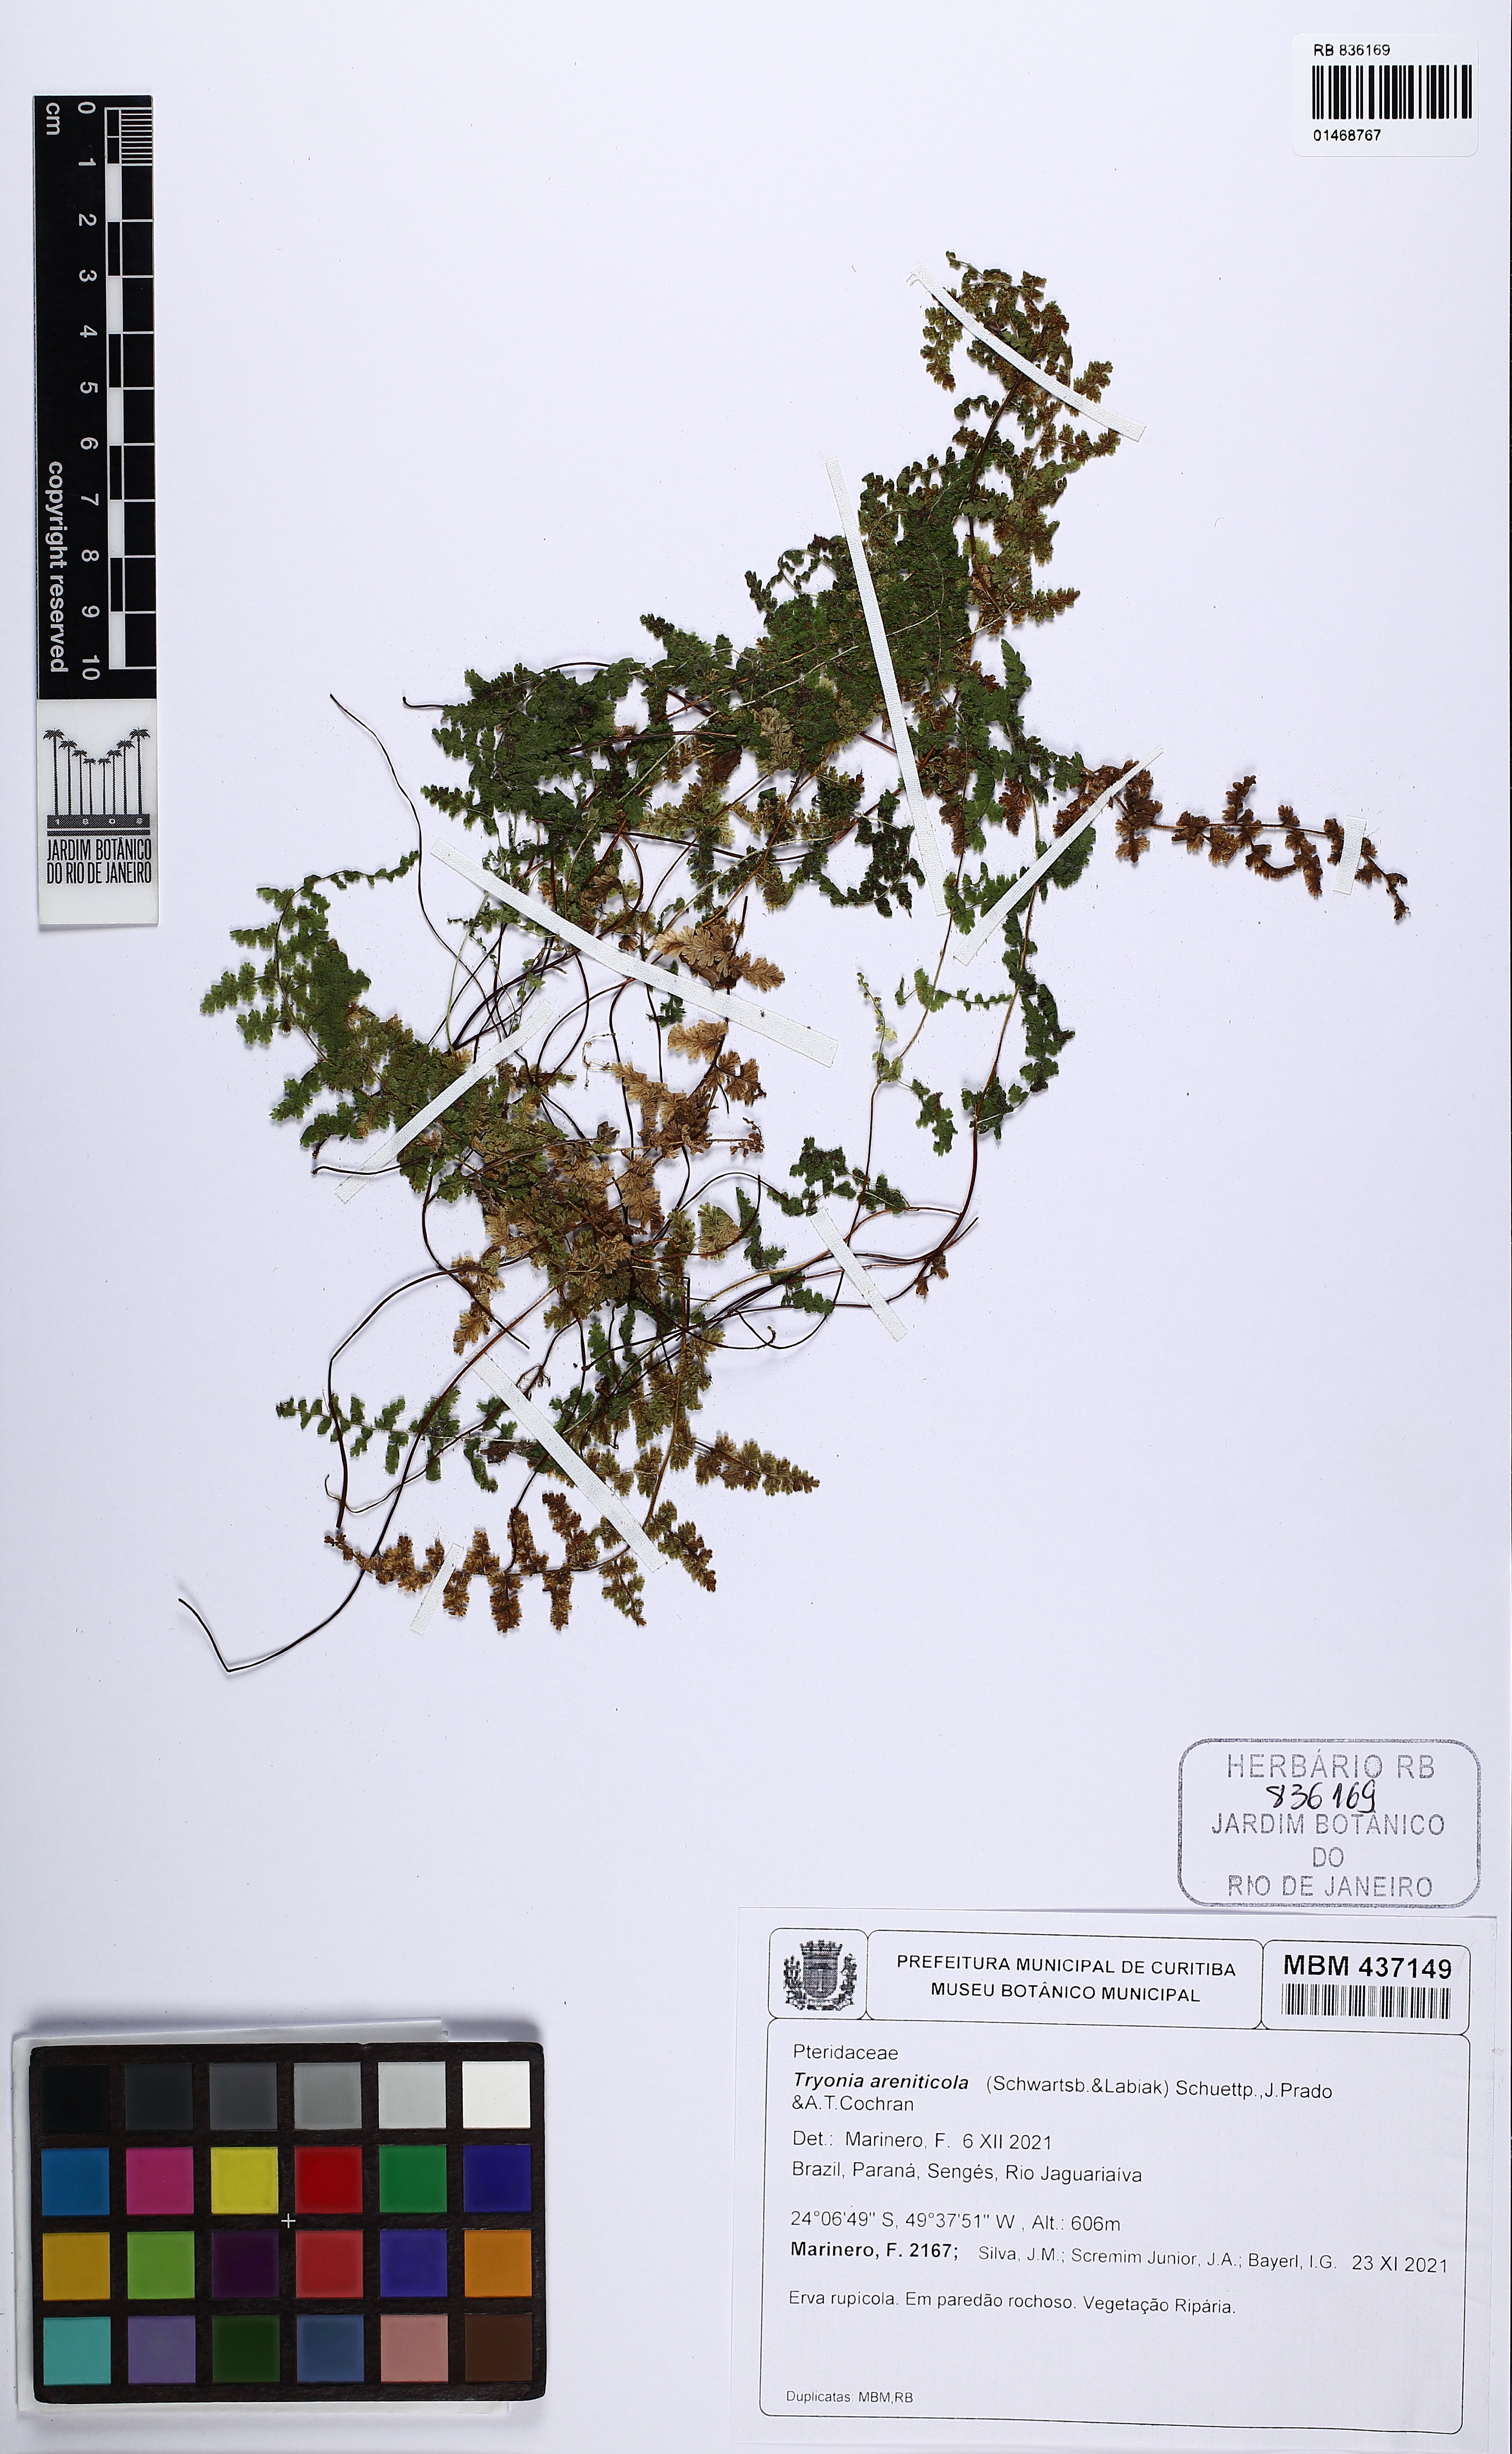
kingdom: Plantae
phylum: Tracheophyta
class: Polypodiopsida
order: Polypodiales
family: Pteridaceae
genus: Tryonia
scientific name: Tryonia areniticola
